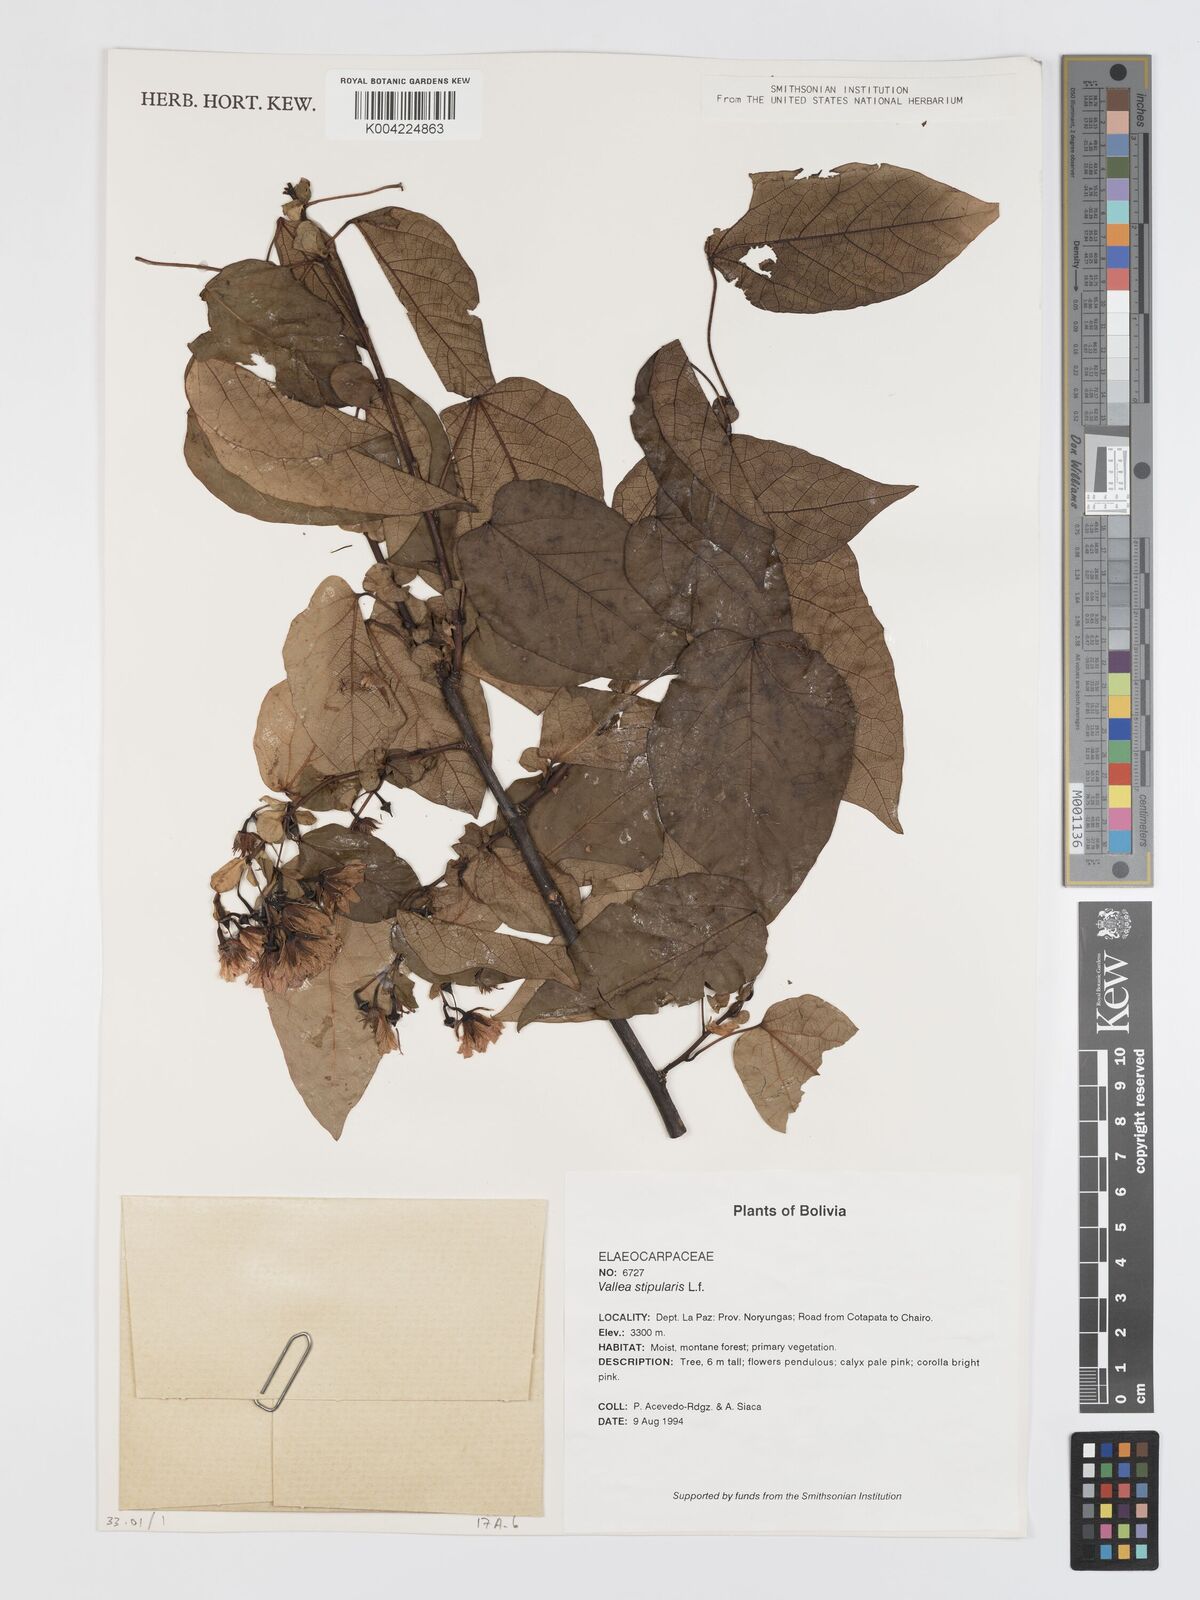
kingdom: Plantae
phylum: Tracheophyta
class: Magnoliopsida
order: Oxalidales
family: Elaeocarpaceae
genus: Vallea
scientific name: Vallea stipularis
